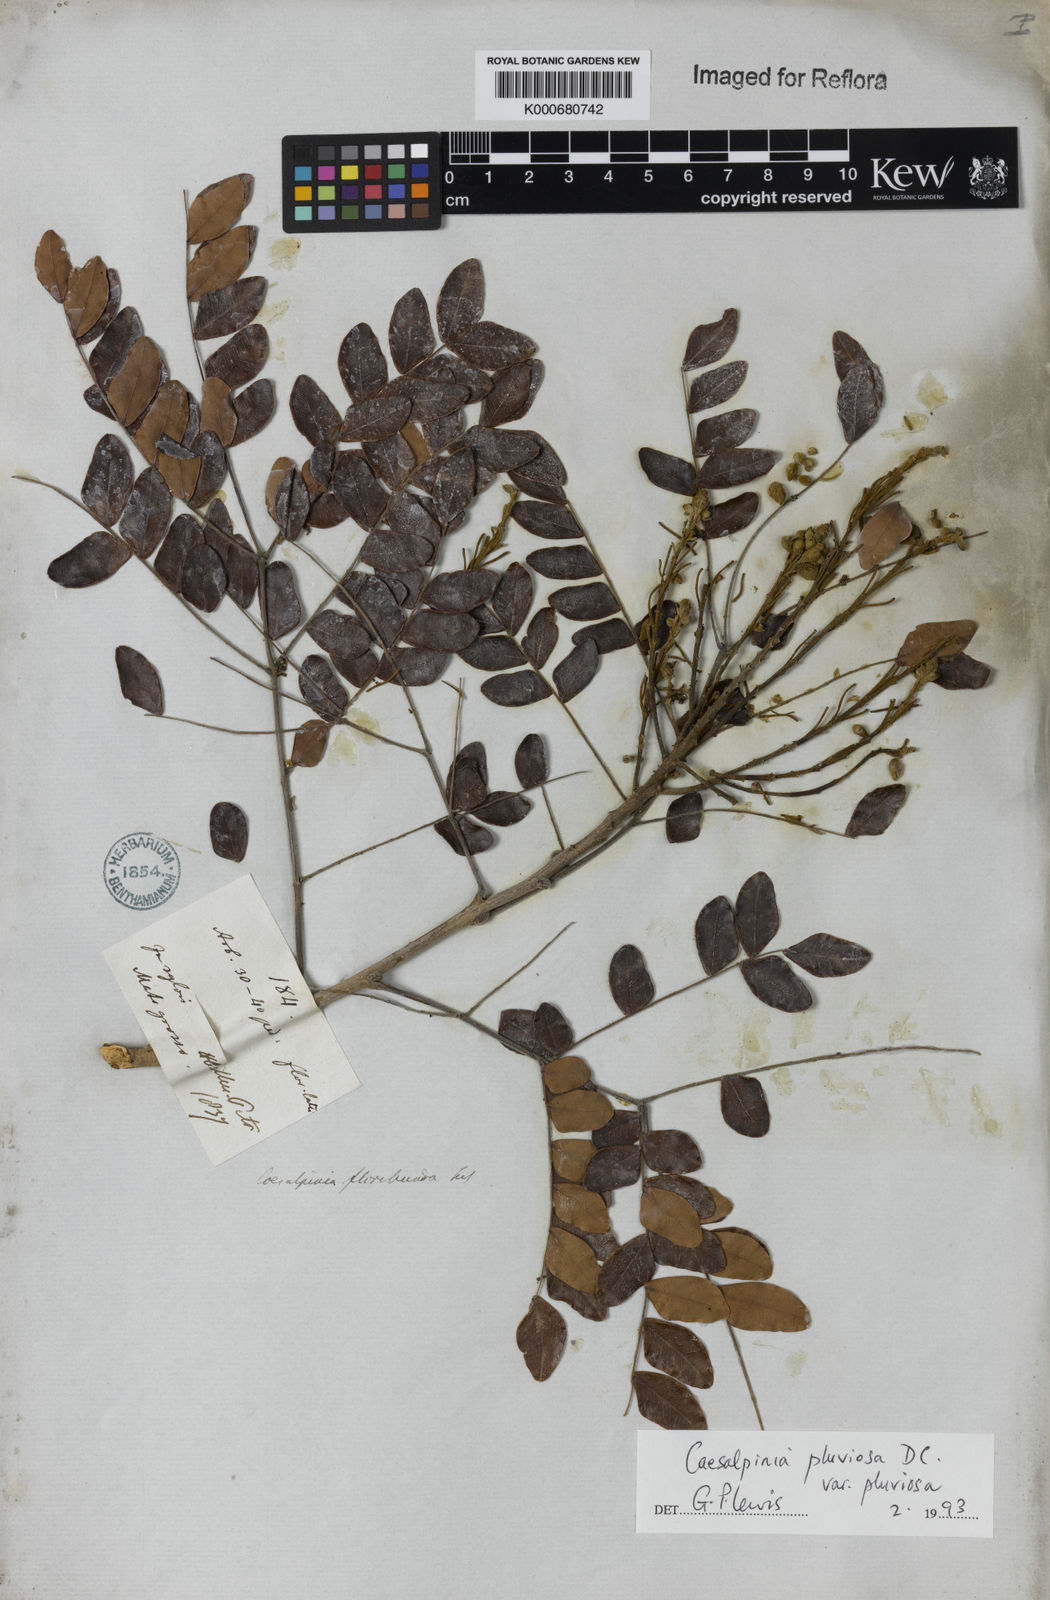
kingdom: Plantae
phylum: Tracheophyta
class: Magnoliopsida
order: Fabales
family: Fabaceae
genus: Cenostigma
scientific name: Cenostigma pluviosum
